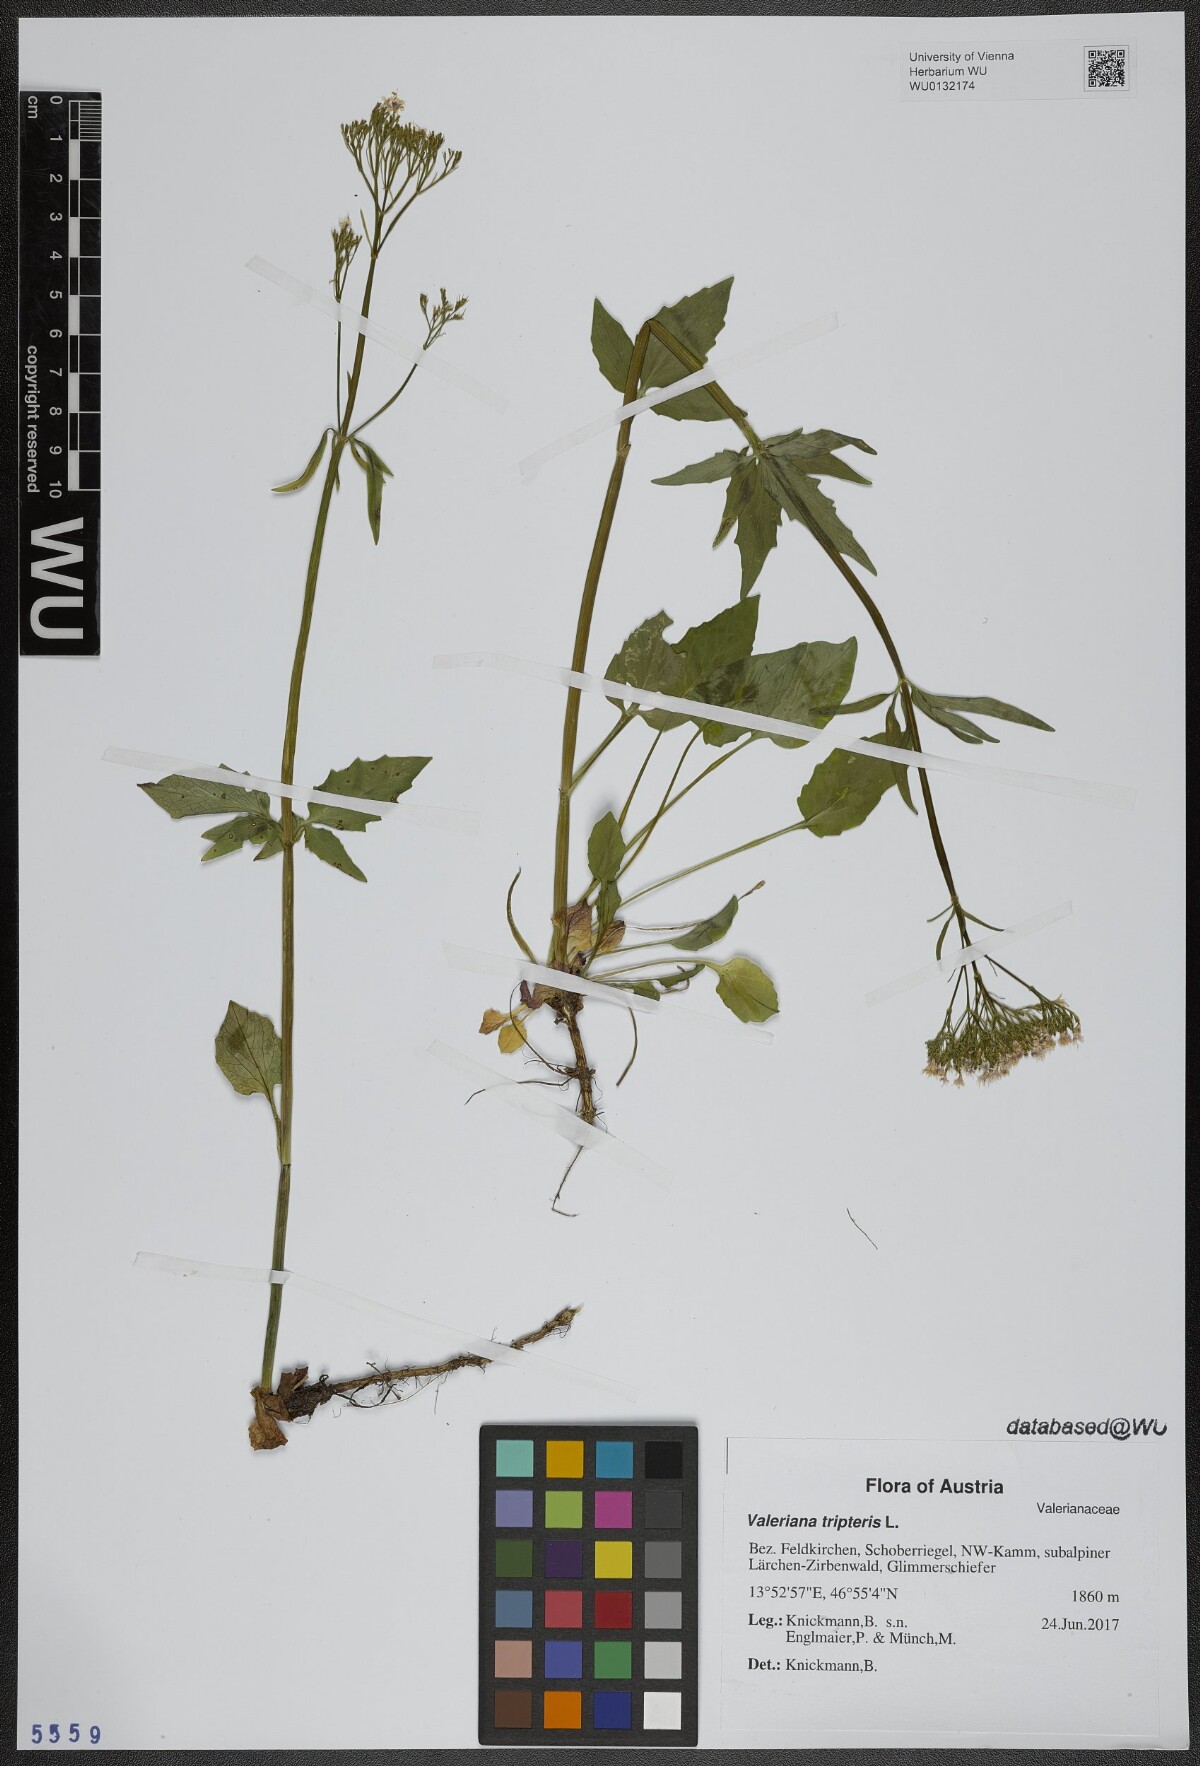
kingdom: Plantae
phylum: Tracheophyta
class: Magnoliopsida
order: Dipsacales
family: Caprifoliaceae
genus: Valeriana
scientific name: Valeriana tripteris
